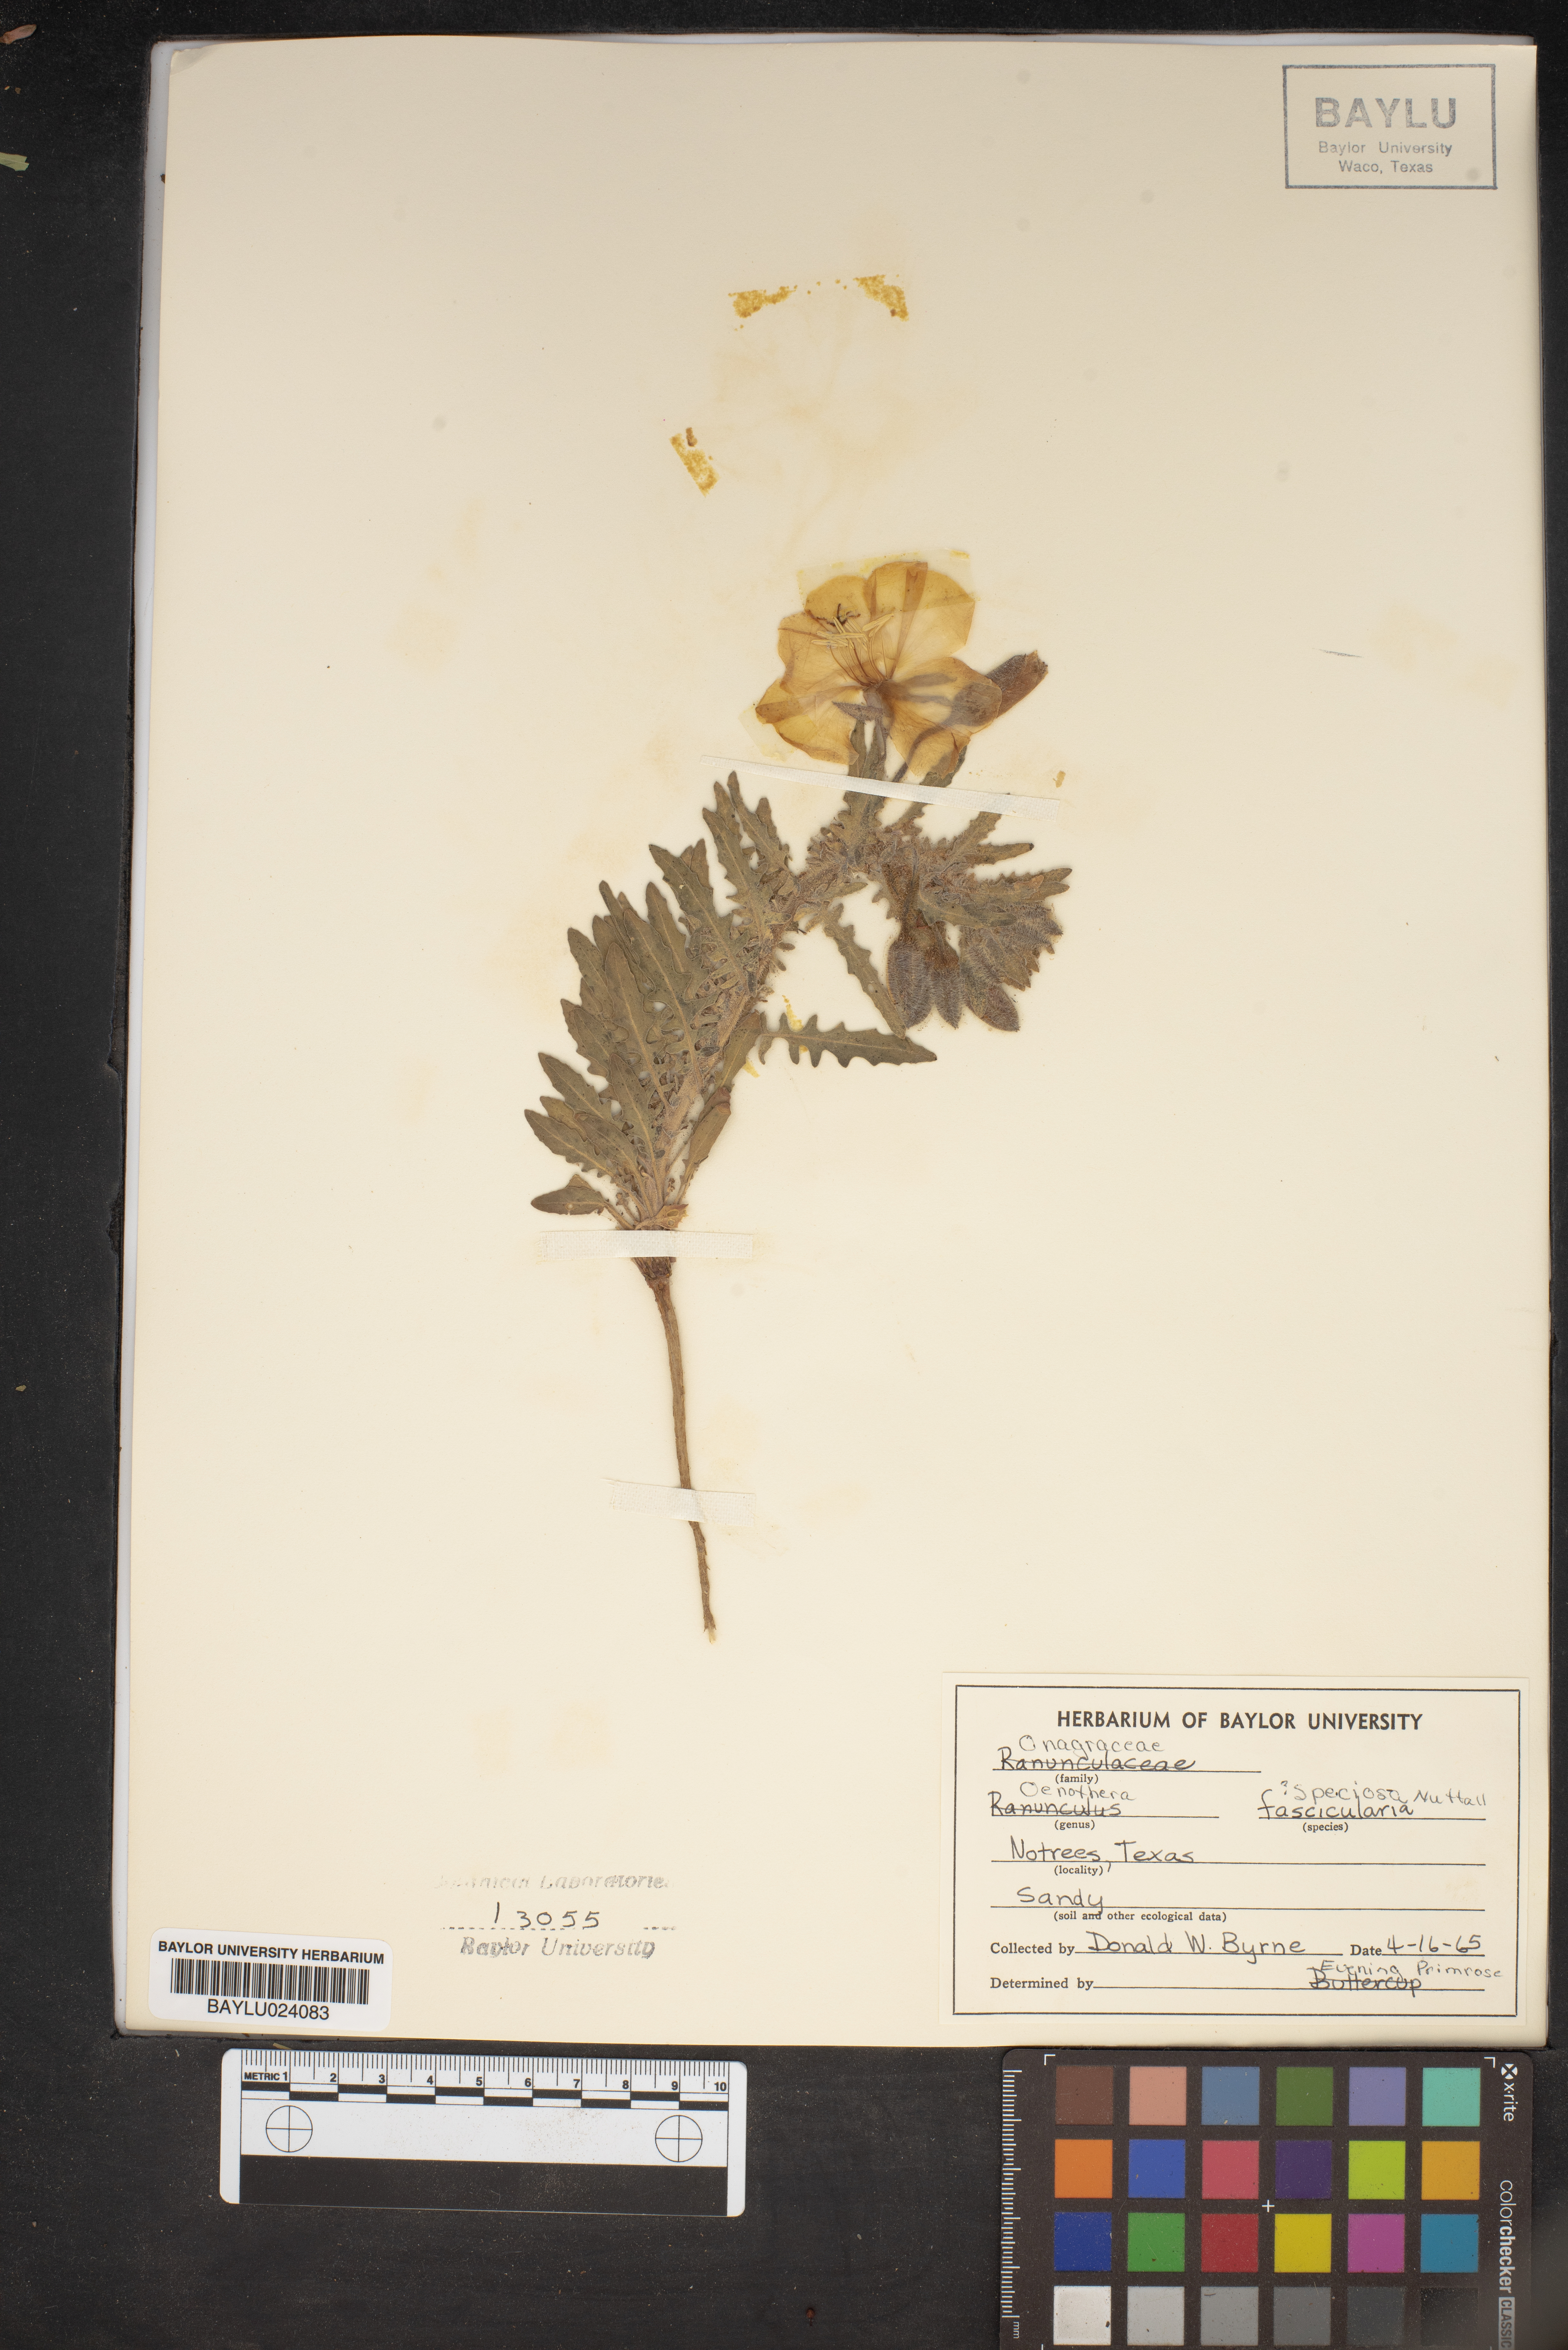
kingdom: Plantae
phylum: Tracheophyta
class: Magnoliopsida
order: Myrtales
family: Onagraceae
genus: Oenothera
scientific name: Oenothera speciosa
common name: White evening-primrose
